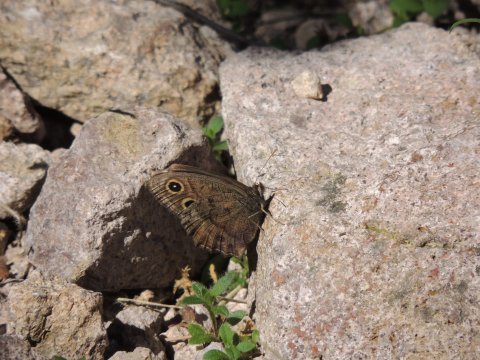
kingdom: Animalia
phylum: Arthropoda
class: Insecta
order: Lepidoptera
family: Nymphalidae
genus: Cercyonis
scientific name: Cercyonis pegala
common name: Common Wood-Nymph
